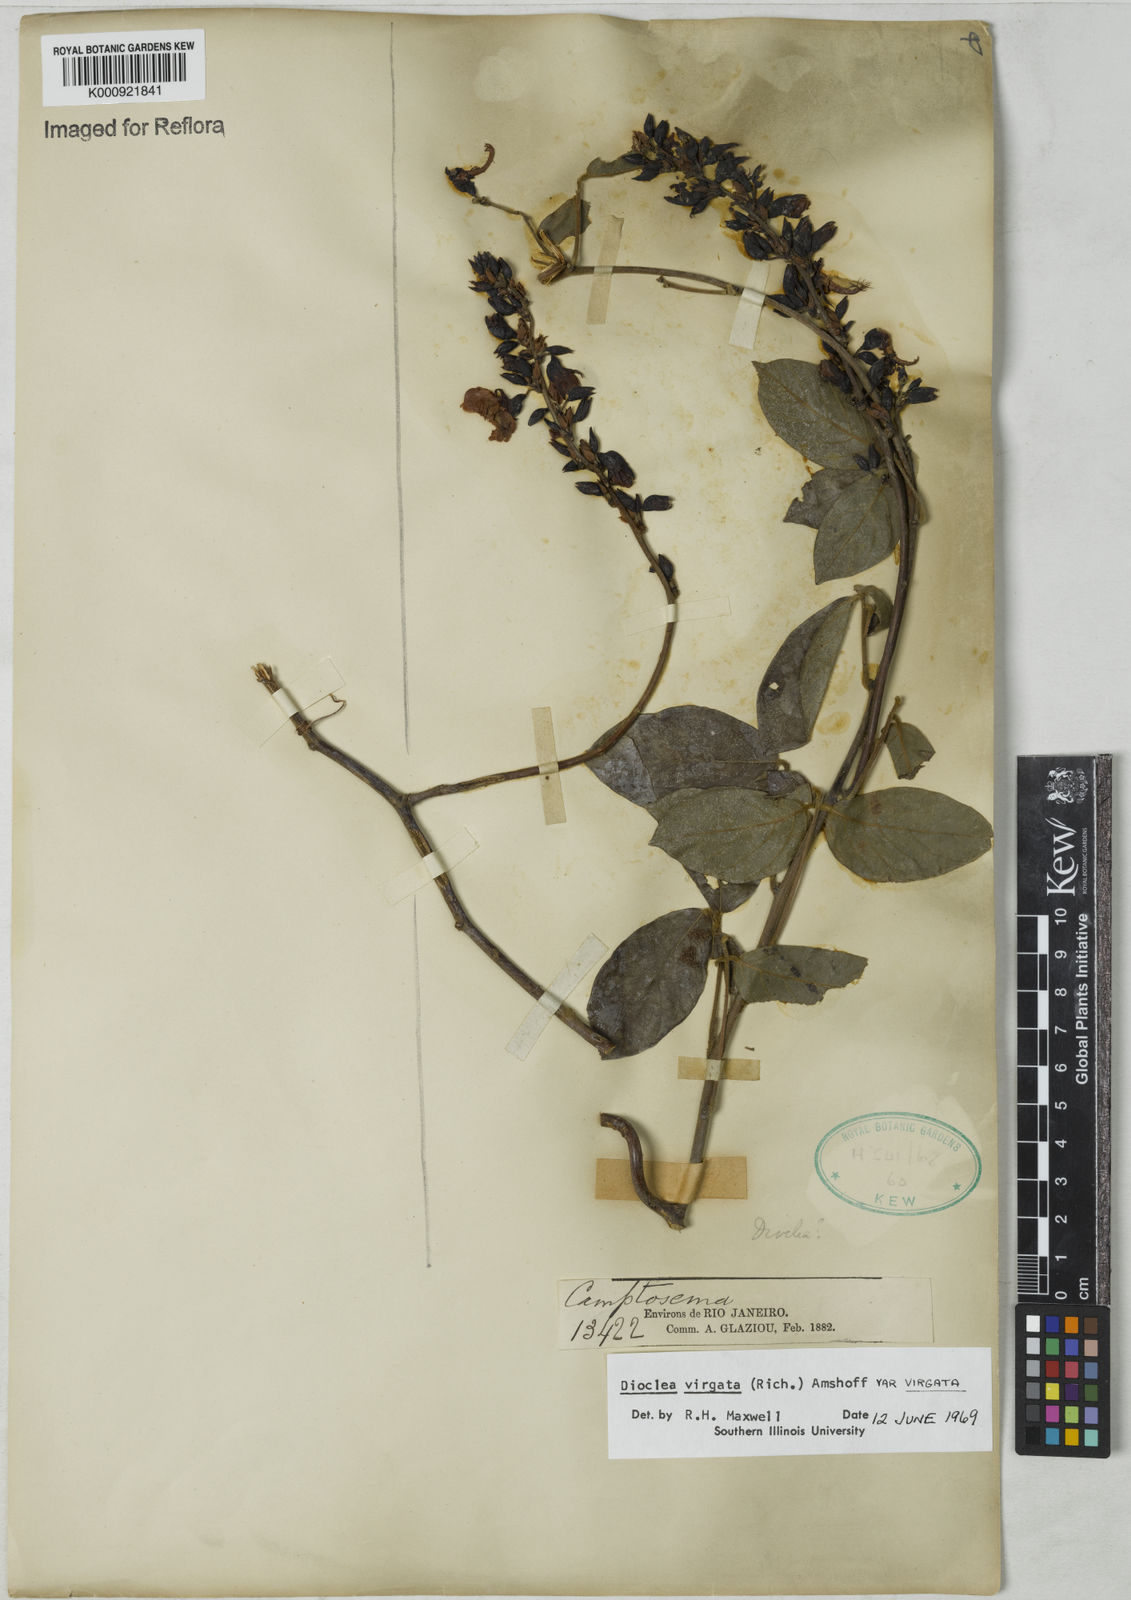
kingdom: Plantae
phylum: Tracheophyta
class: Magnoliopsida
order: Fabales
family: Fabaceae
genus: Dioclea
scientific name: Dioclea virgata
